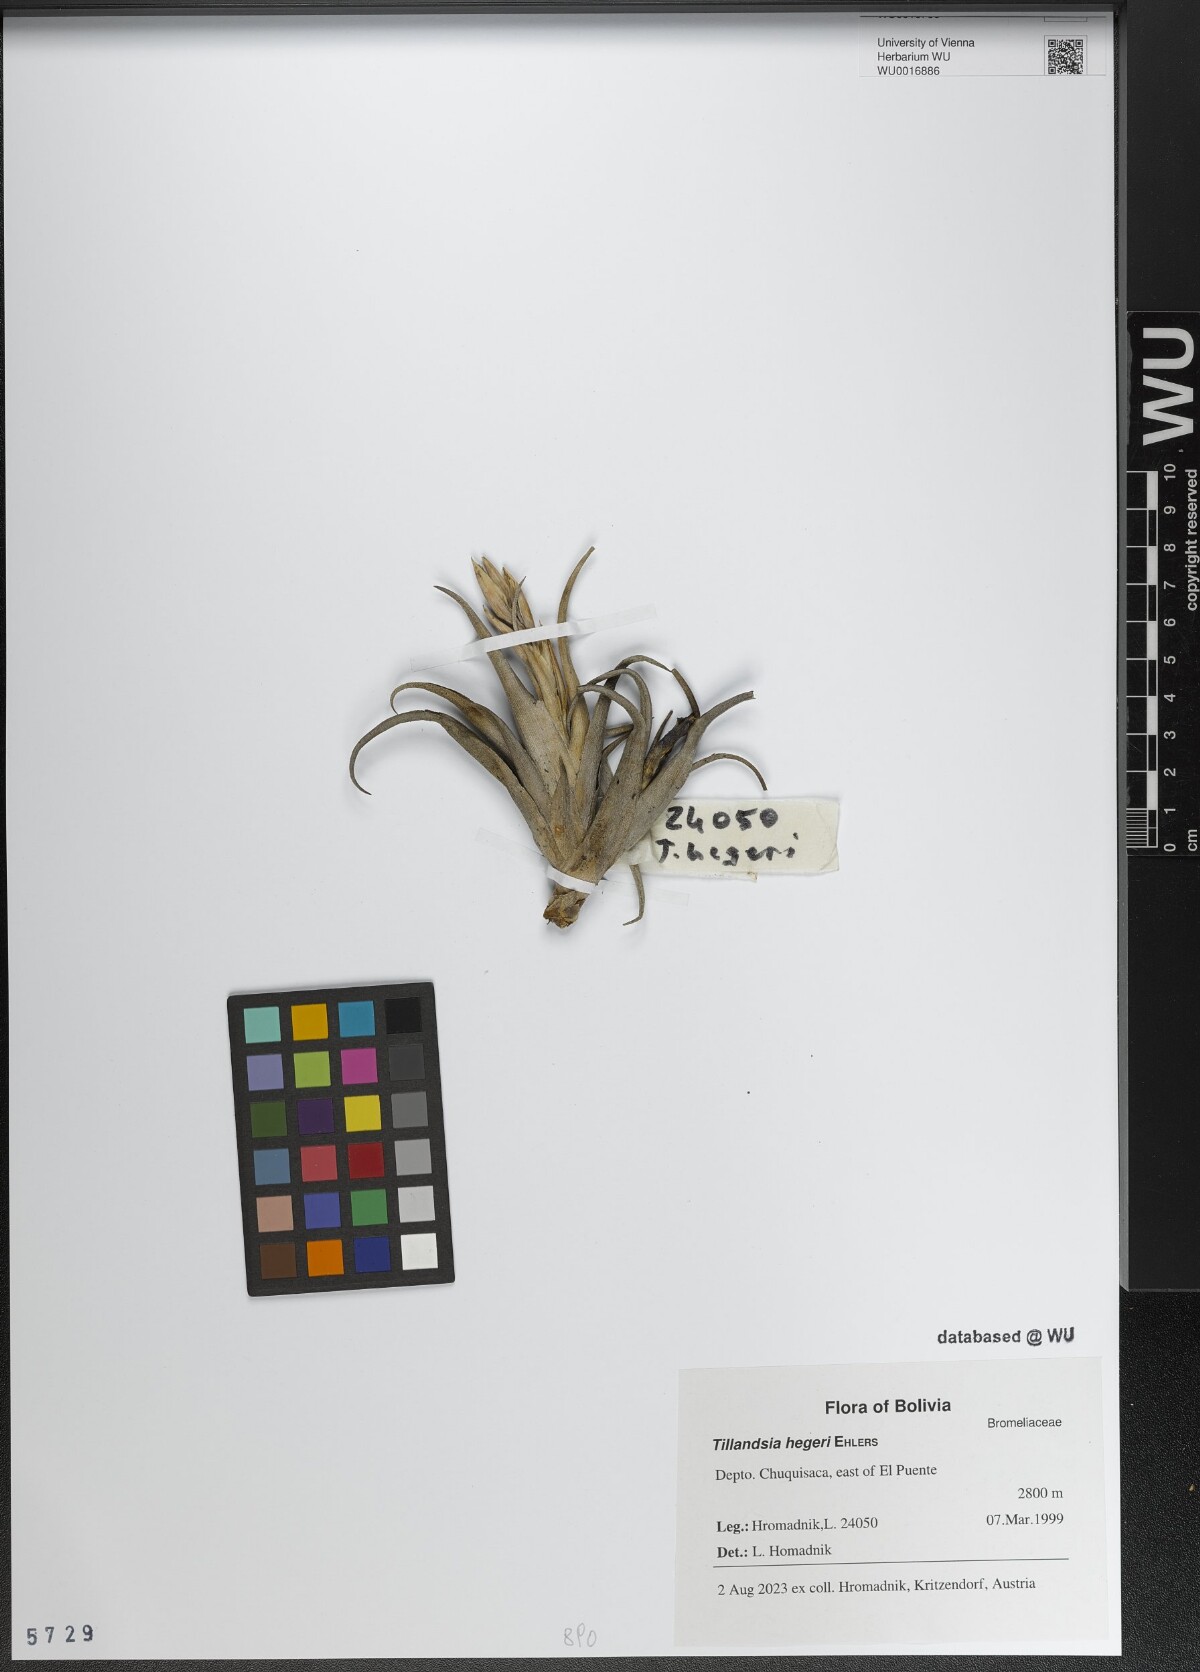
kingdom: Plantae
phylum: Tracheophyta
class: Liliopsida
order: Poales
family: Bromeliaceae
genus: Tillandsia
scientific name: Tillandsia hegeri
